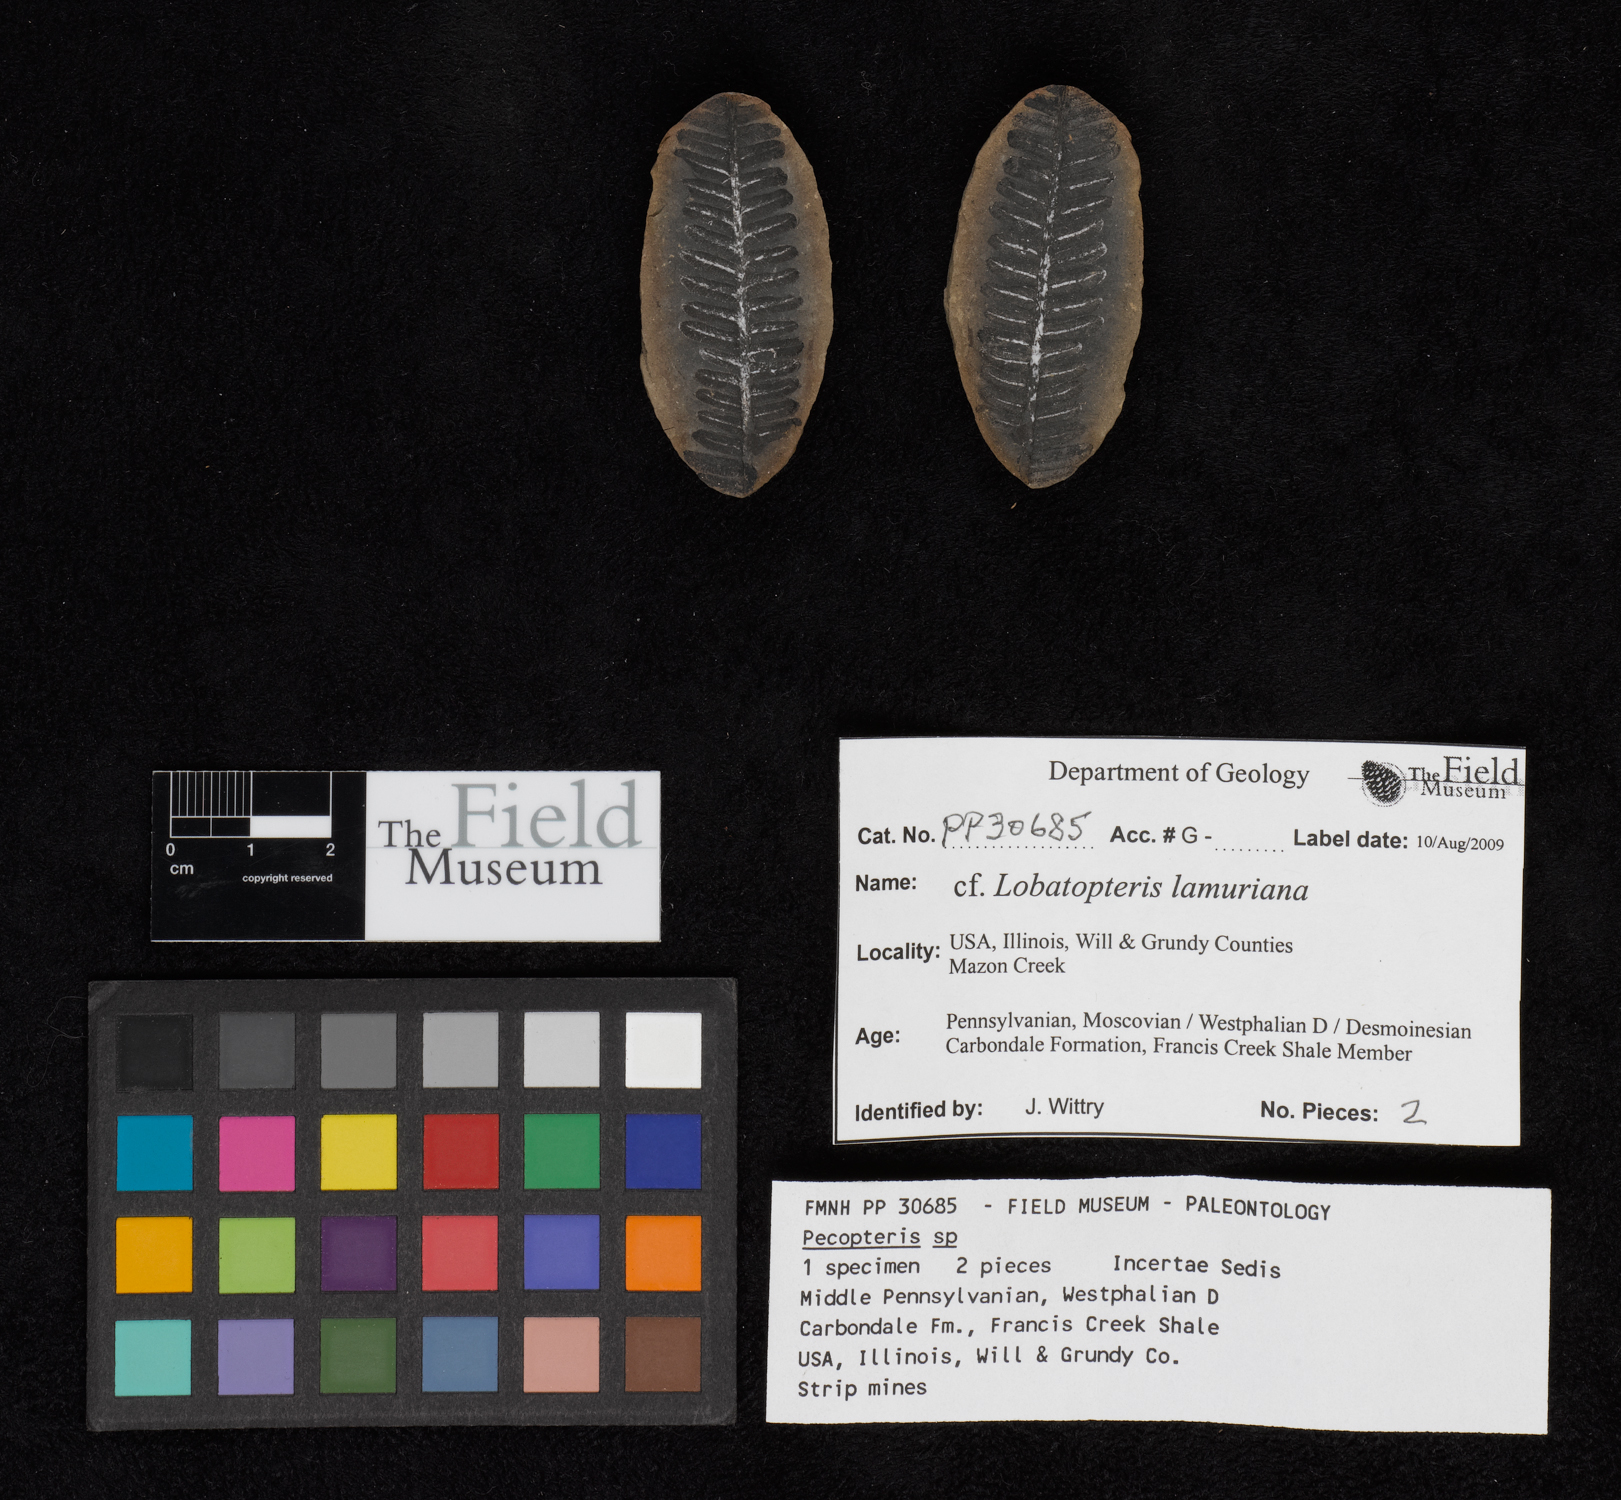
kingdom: Plantae
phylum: Tracheophyta
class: Polypodiopsida
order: Marattiales
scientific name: Marattiales
